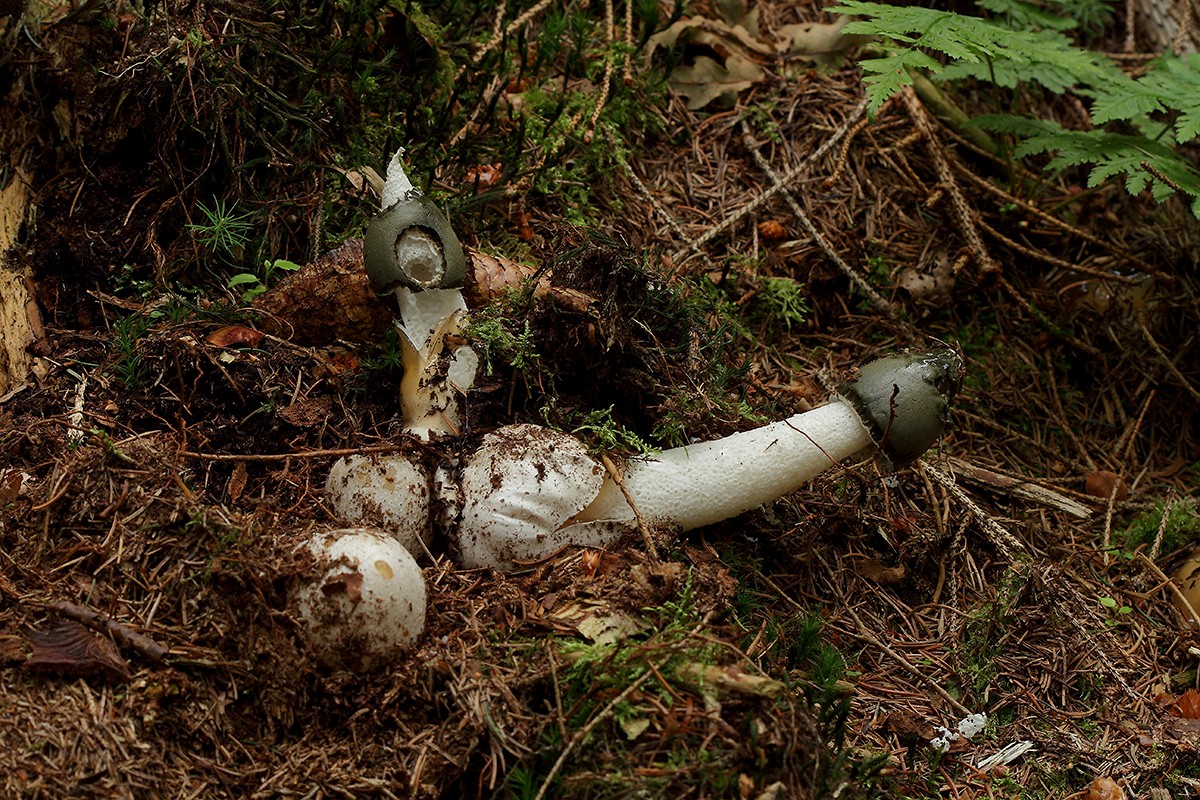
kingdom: Fungi
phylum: Basidiomycota
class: Agaricomycetes
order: Phallales
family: Phallaceae
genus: Phallus
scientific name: Phallus impudicus
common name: almindelig stinksvamp
